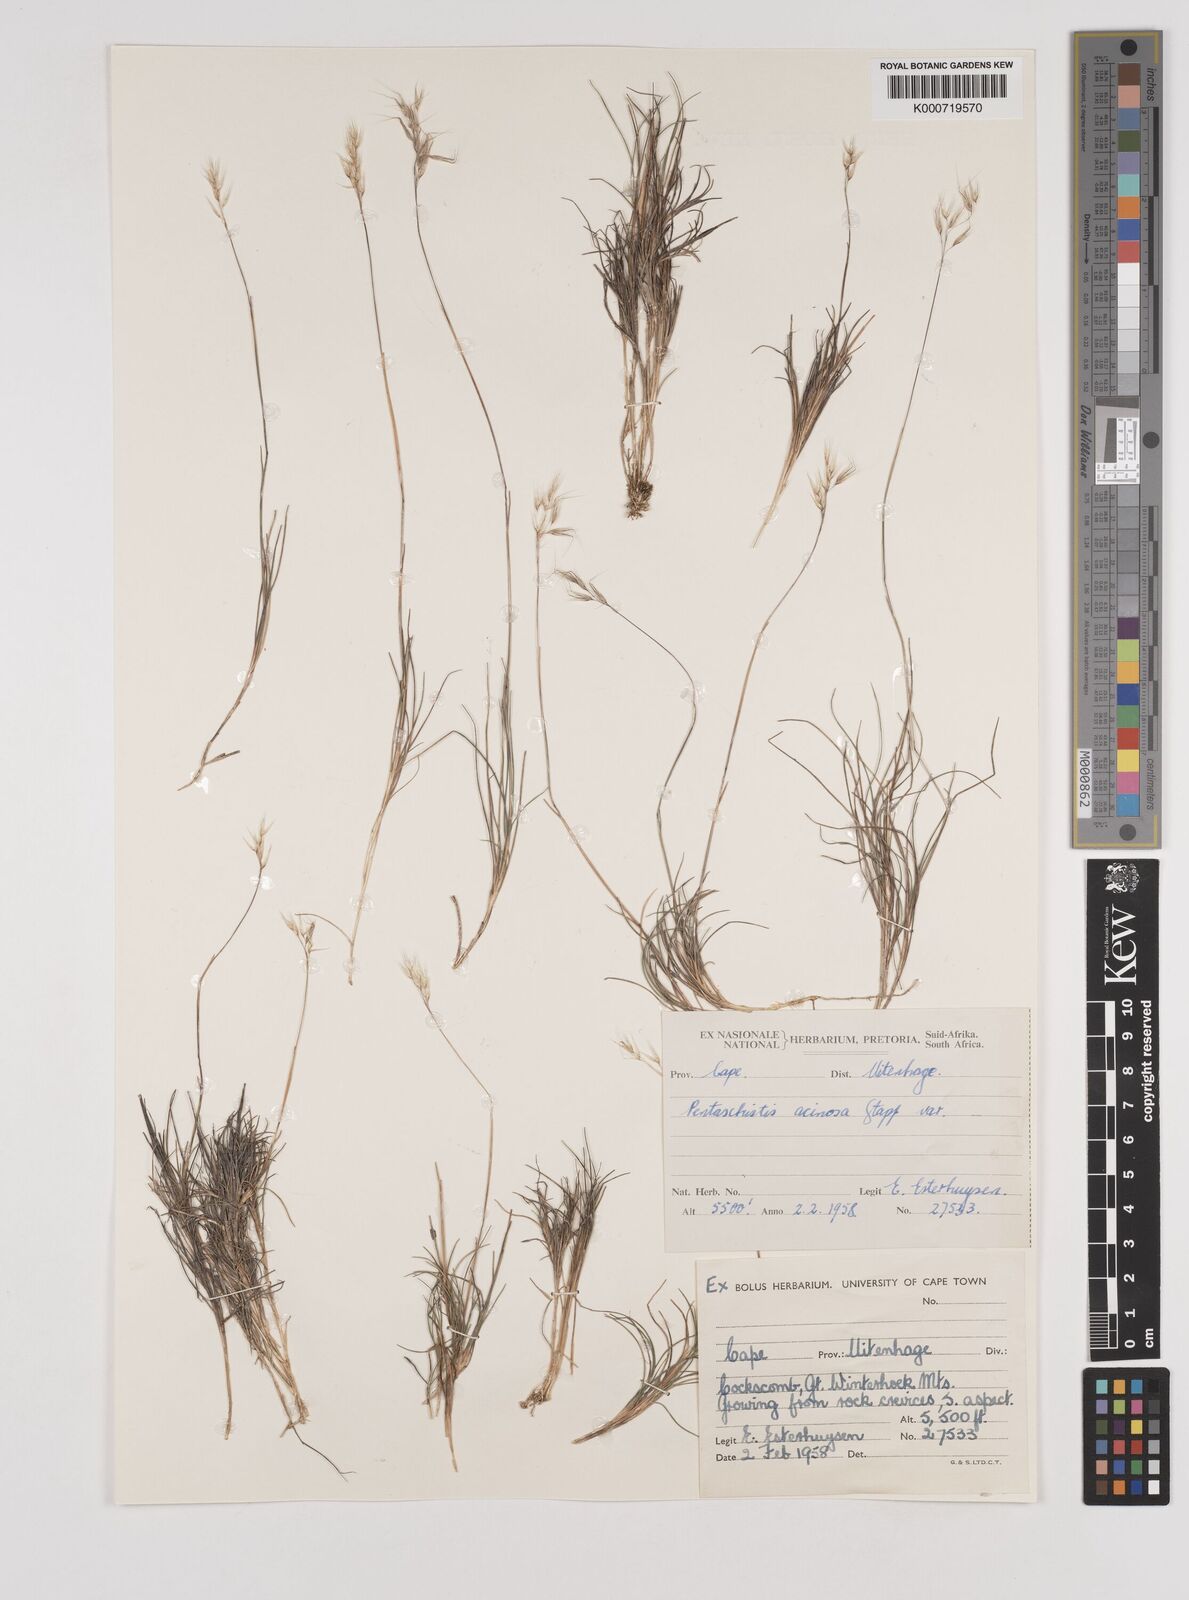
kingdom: Plantae
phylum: Tracheophyta
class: Liliopsida
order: Poales
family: Poaceae
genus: Pentameris
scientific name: Pentameris rigidissima
